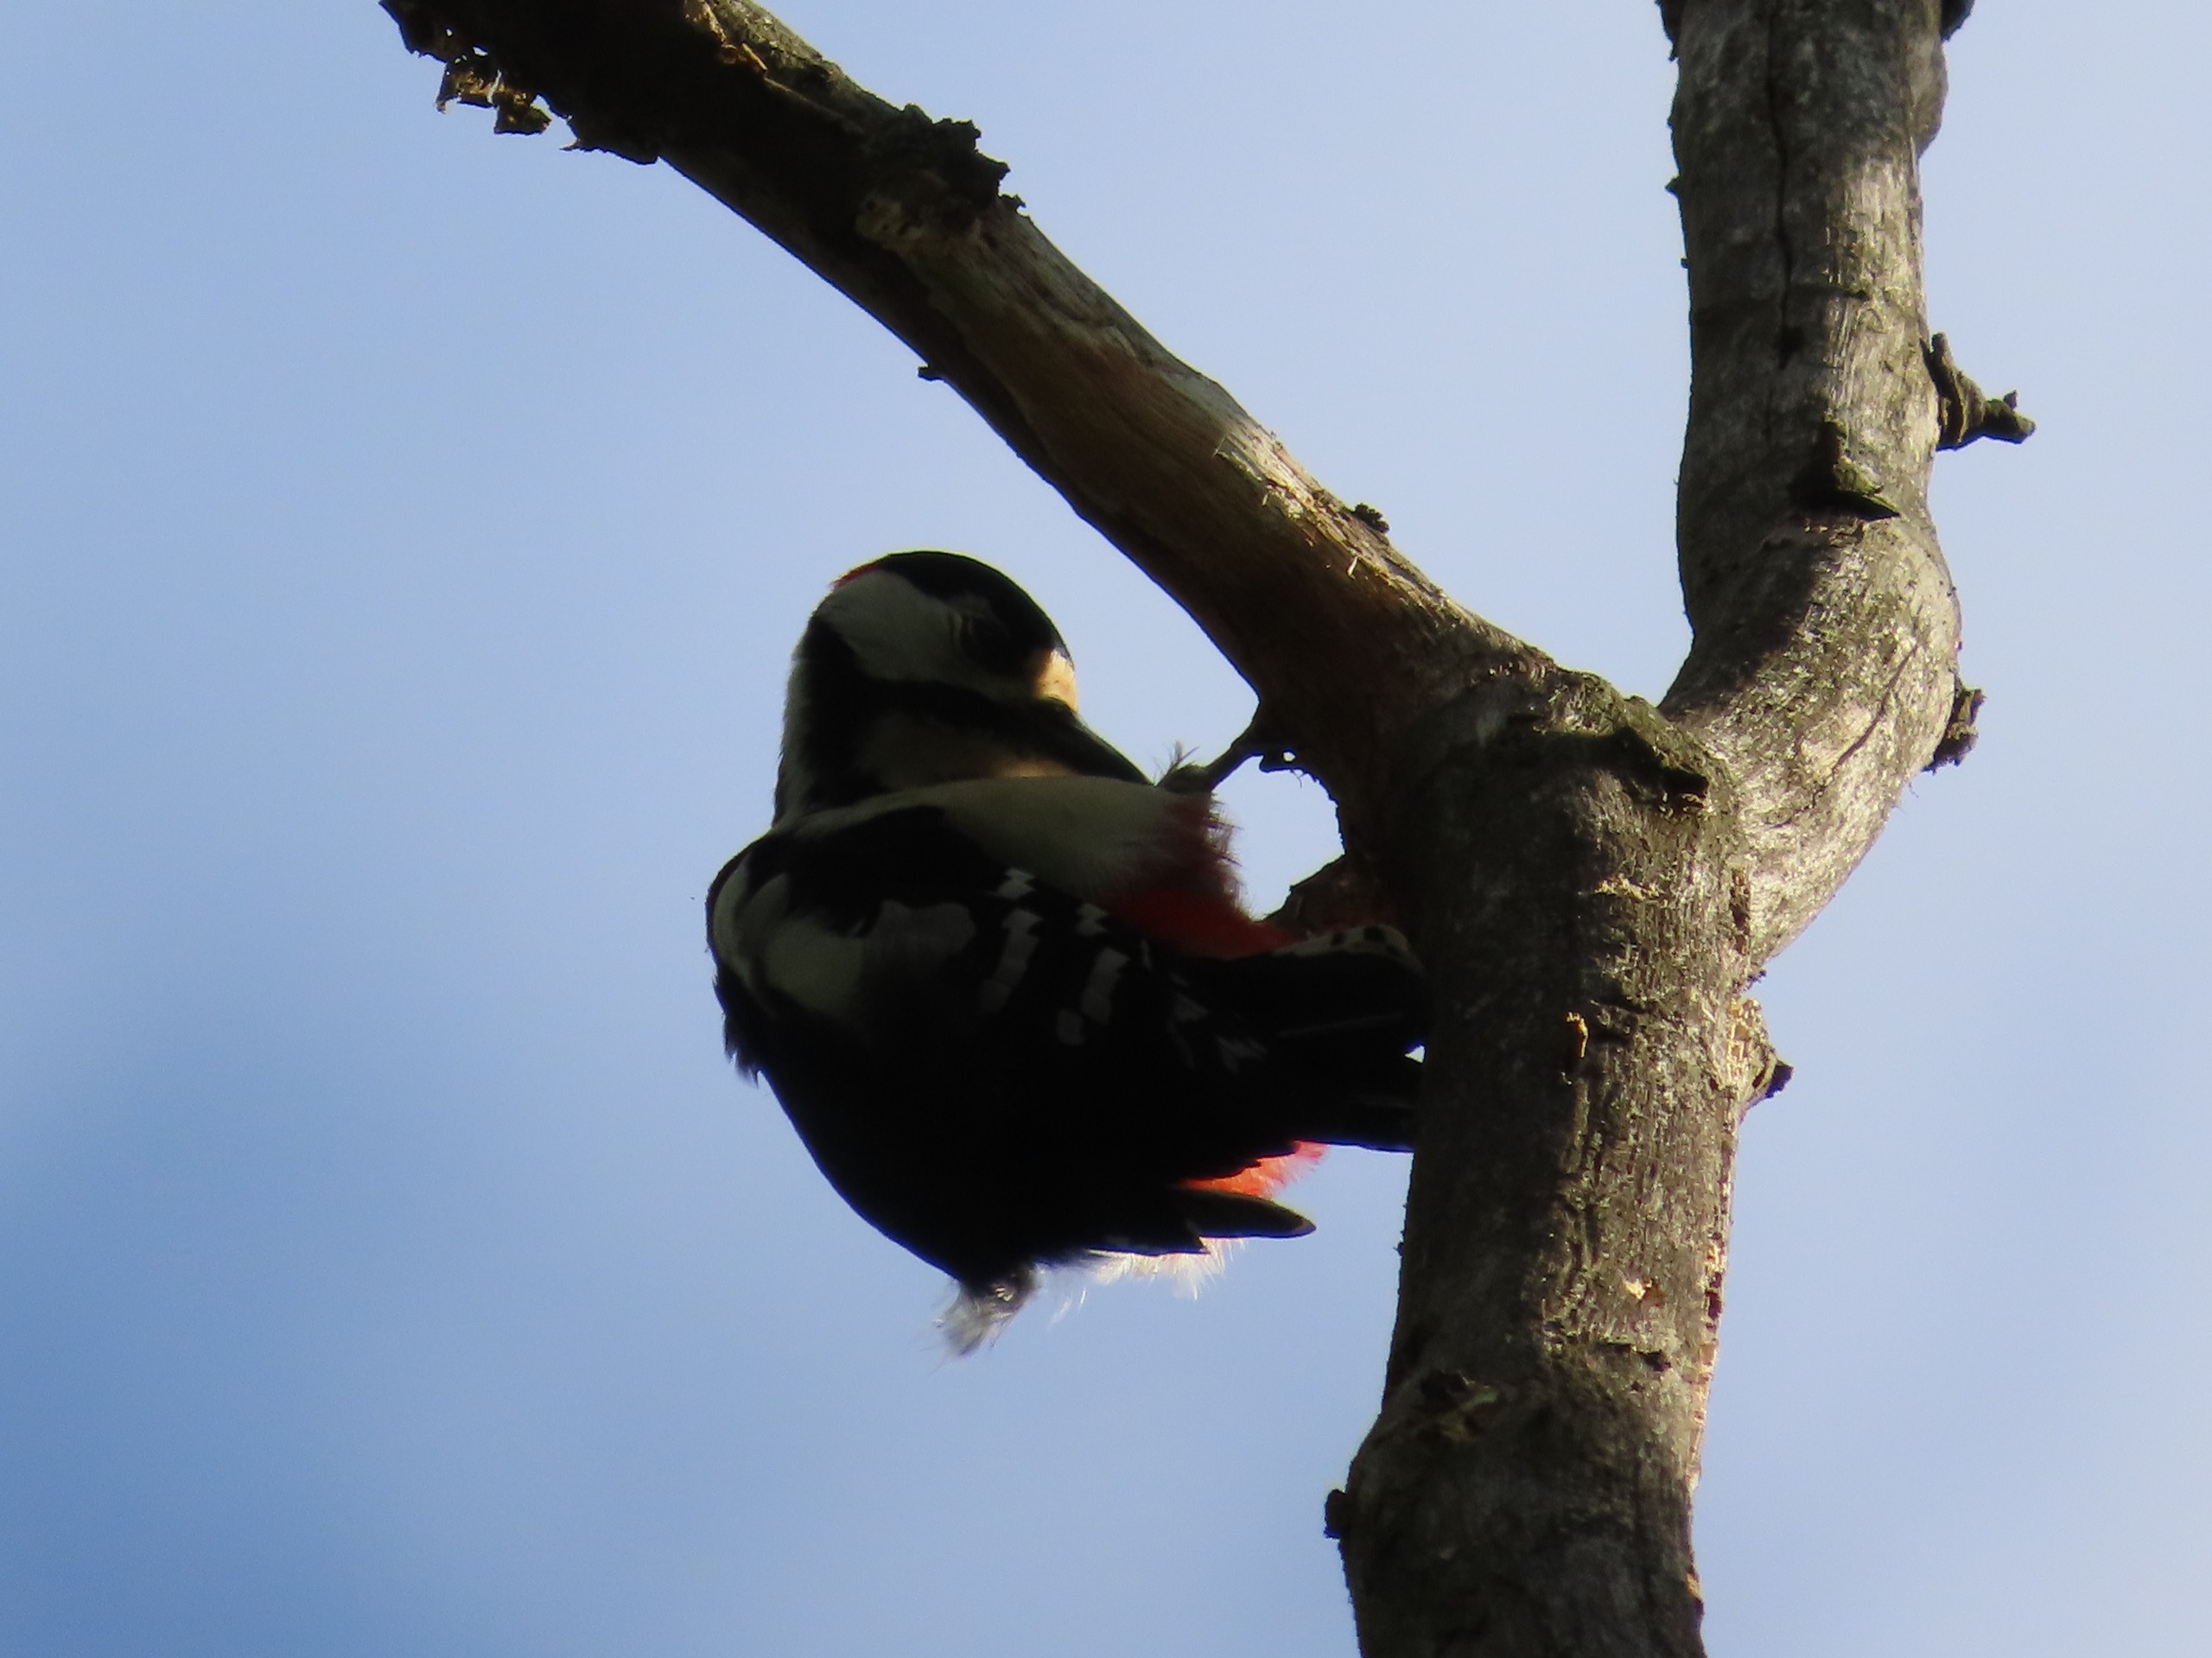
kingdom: Animalia
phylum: Chordata
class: Aves
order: Piciformes
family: Picidae
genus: Dendrocopos
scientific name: Dendrocopos major
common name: Stor flagspætte
